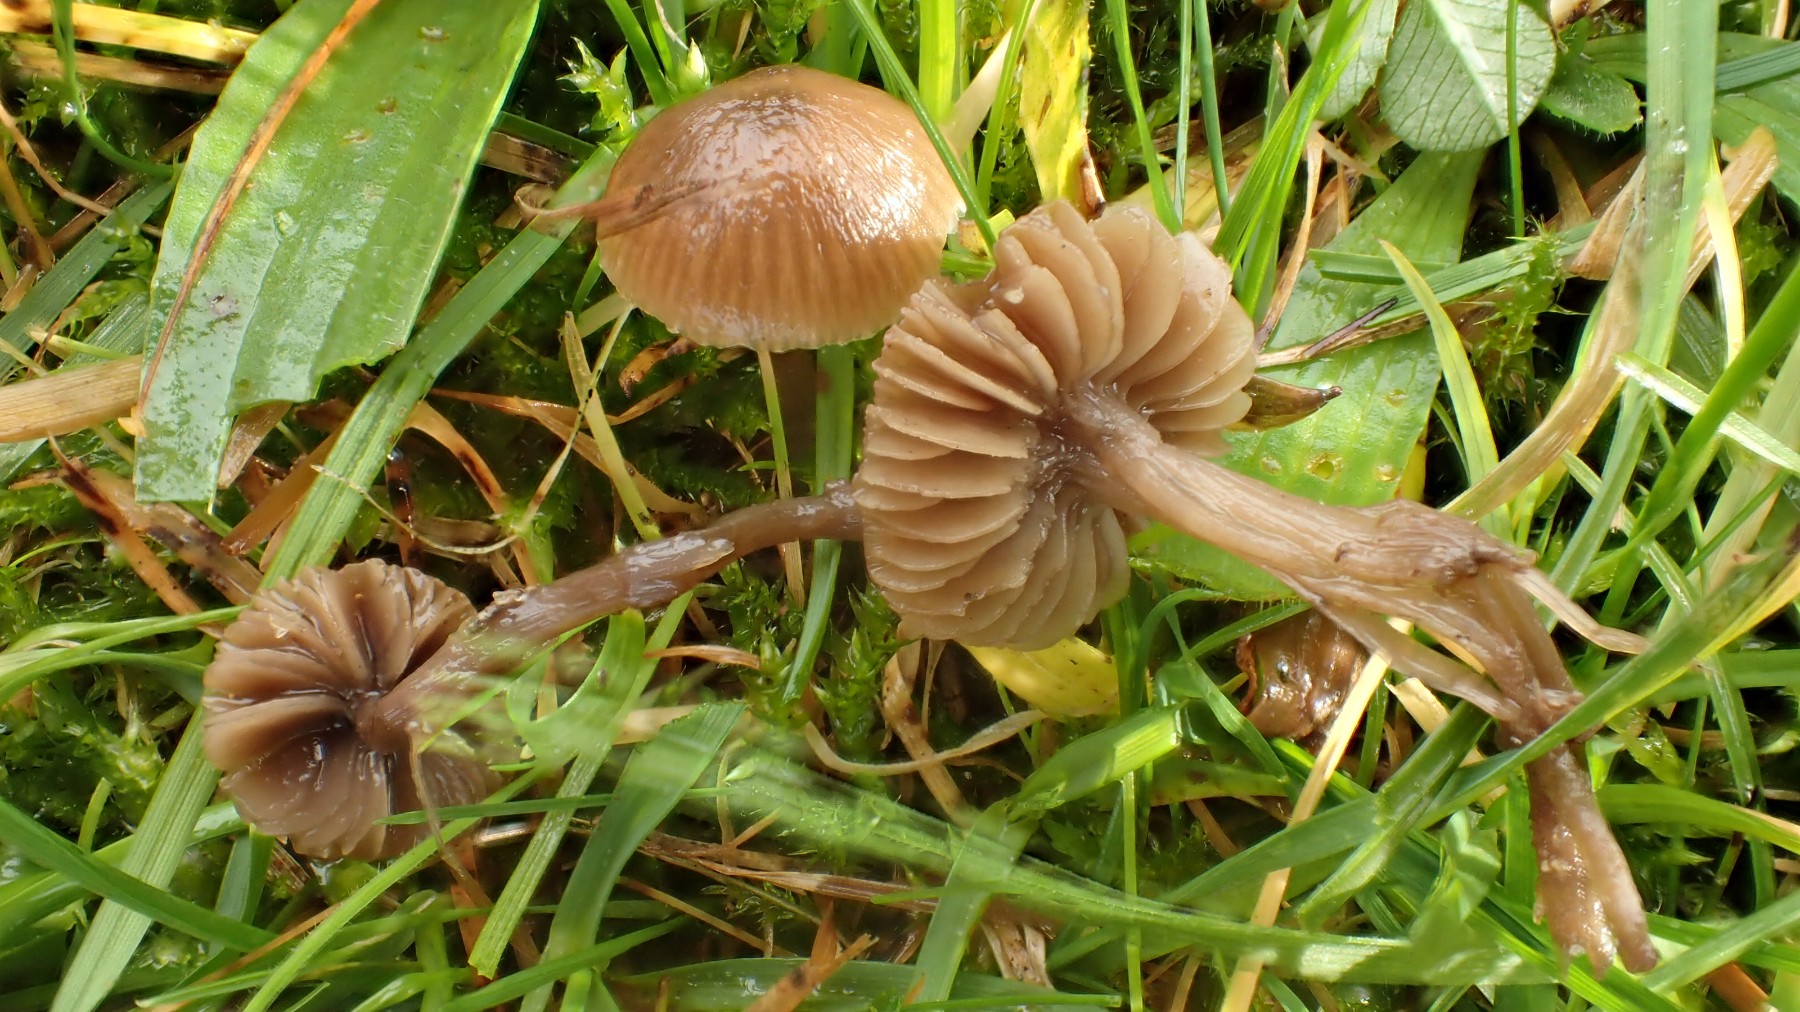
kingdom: Fungi
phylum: Basidiomycota
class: Agaricomycetes
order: Agaricales
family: Tricholomataceae
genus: Dermoloma
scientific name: Dermoloma pseudocuneifolium
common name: mark-nonnehat
